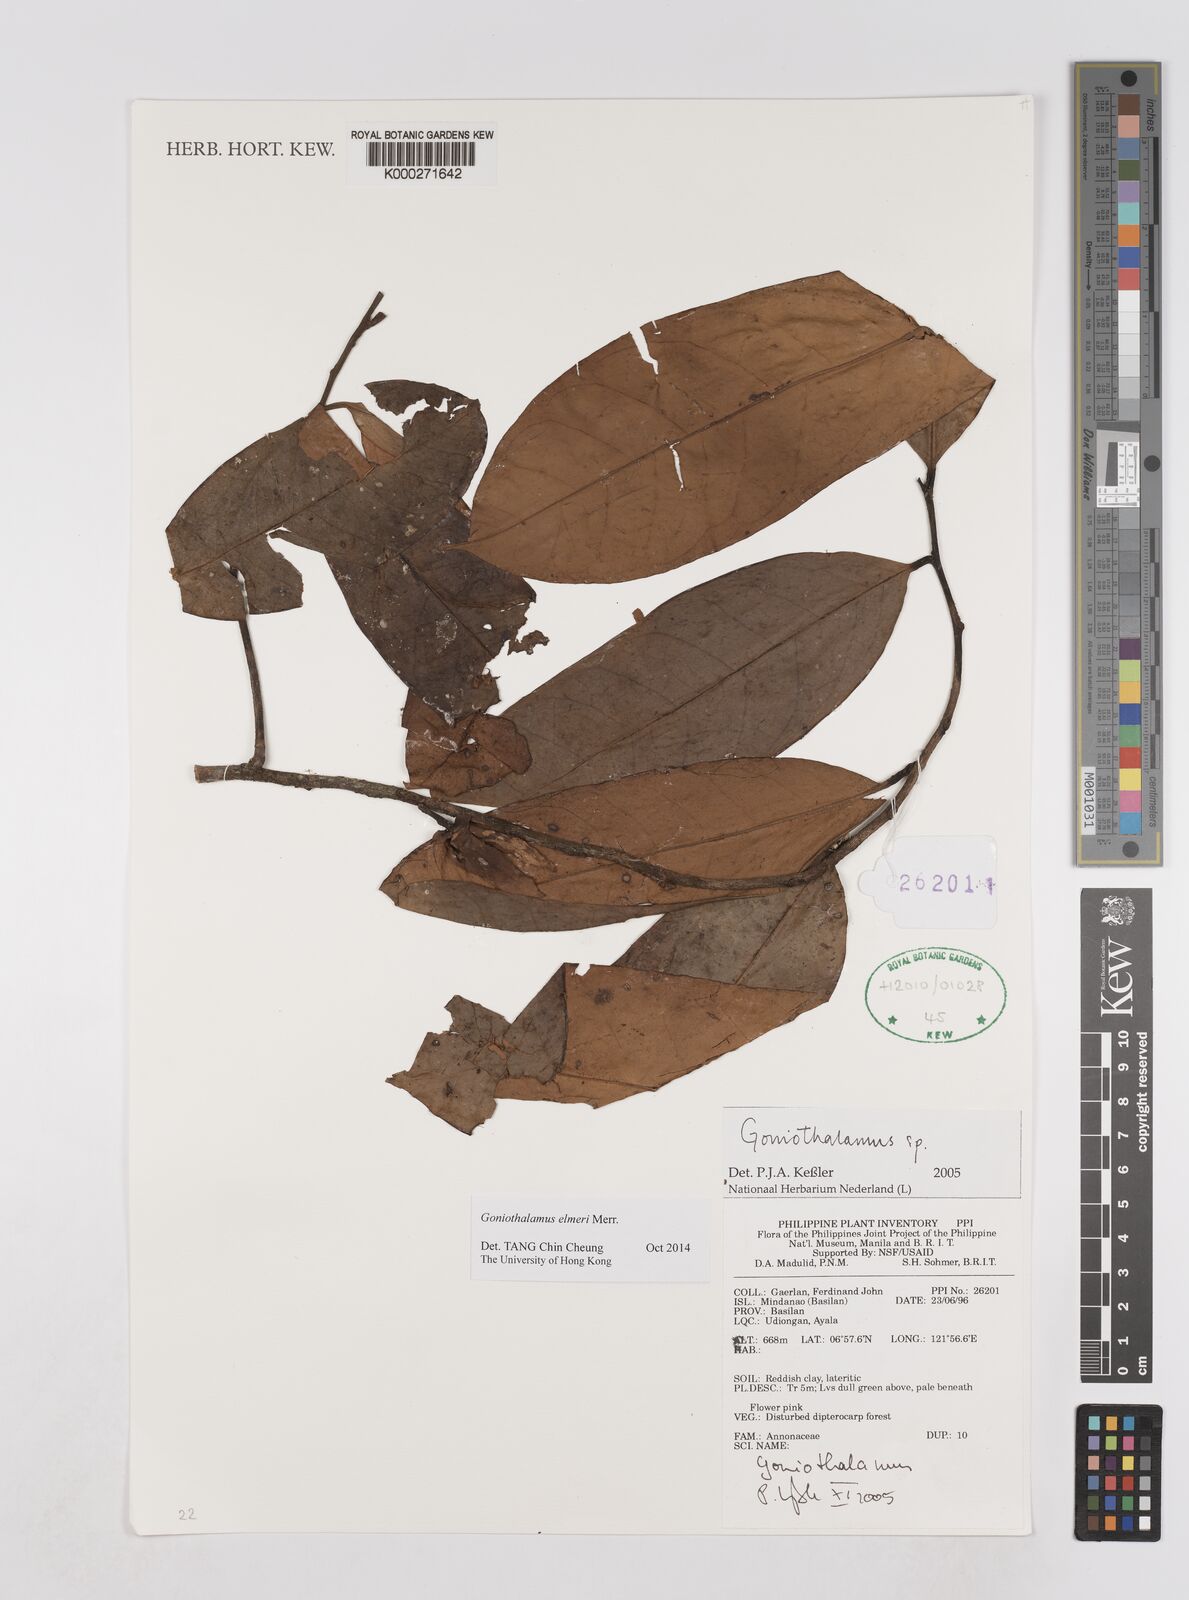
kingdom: Plantae
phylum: Tracheophyta
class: Magnoliopsida
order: Magnoliales
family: Annonaceae
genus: Goniothalamus
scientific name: Goniothalamus
